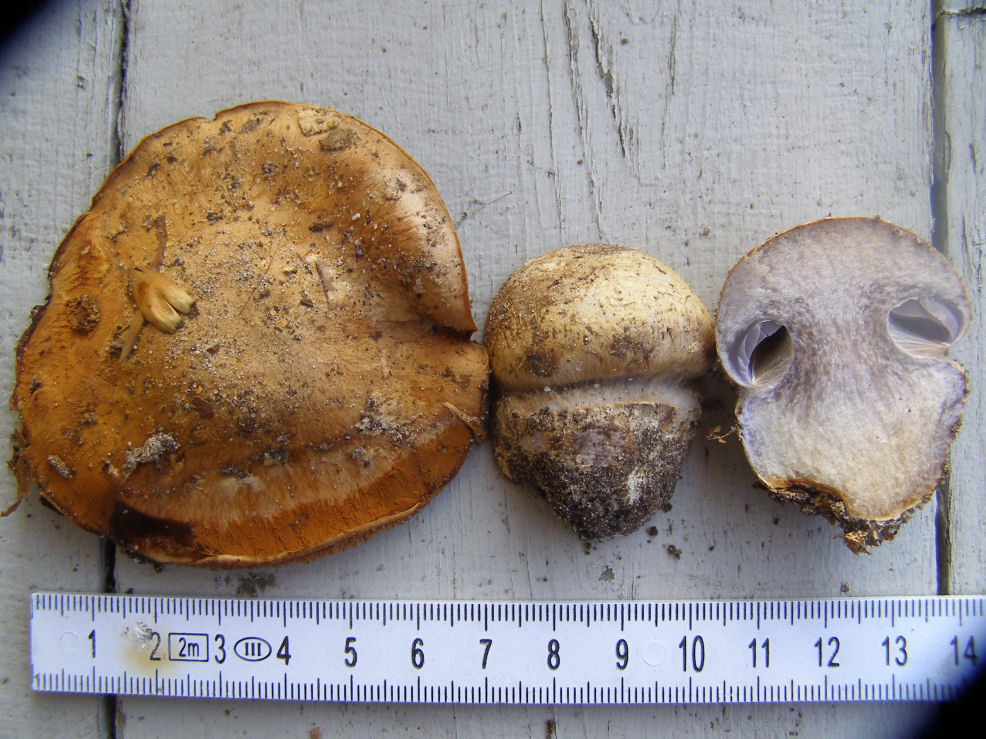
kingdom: Fungi
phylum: Basidiomycota
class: Agaricomycetes
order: Agaricales
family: Cortinariaceae
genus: Phlegmacium
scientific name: Phlegmacium luhmannii
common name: musegrå slørhat
